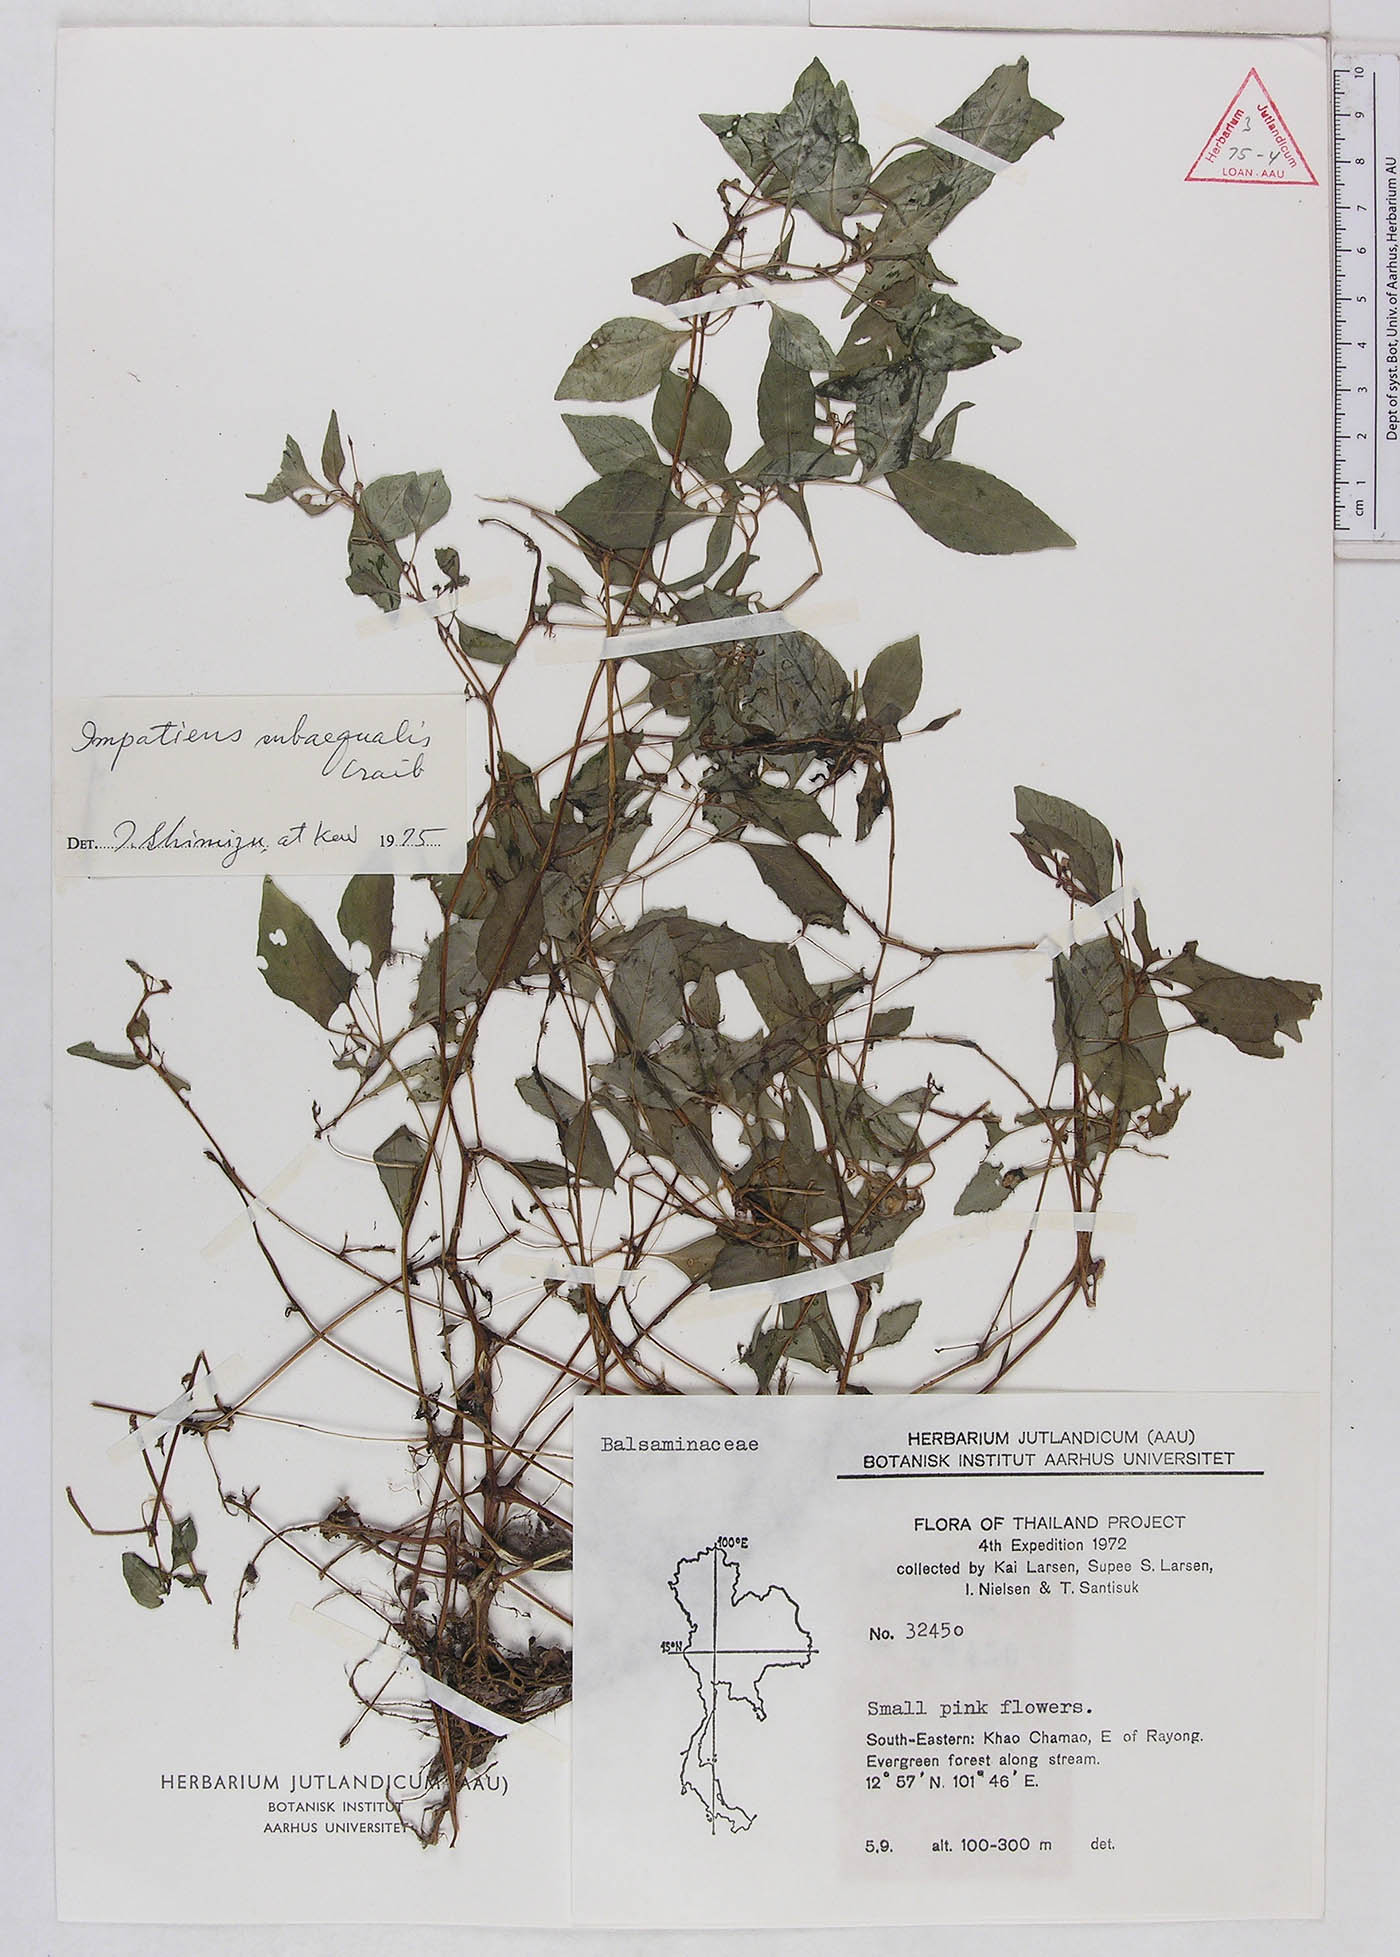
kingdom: Plantae
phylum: Tracheophyta
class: Magnoliopsida
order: Ericales
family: Balsaminaceae
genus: Impatiens
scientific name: Impatiens saxicola
